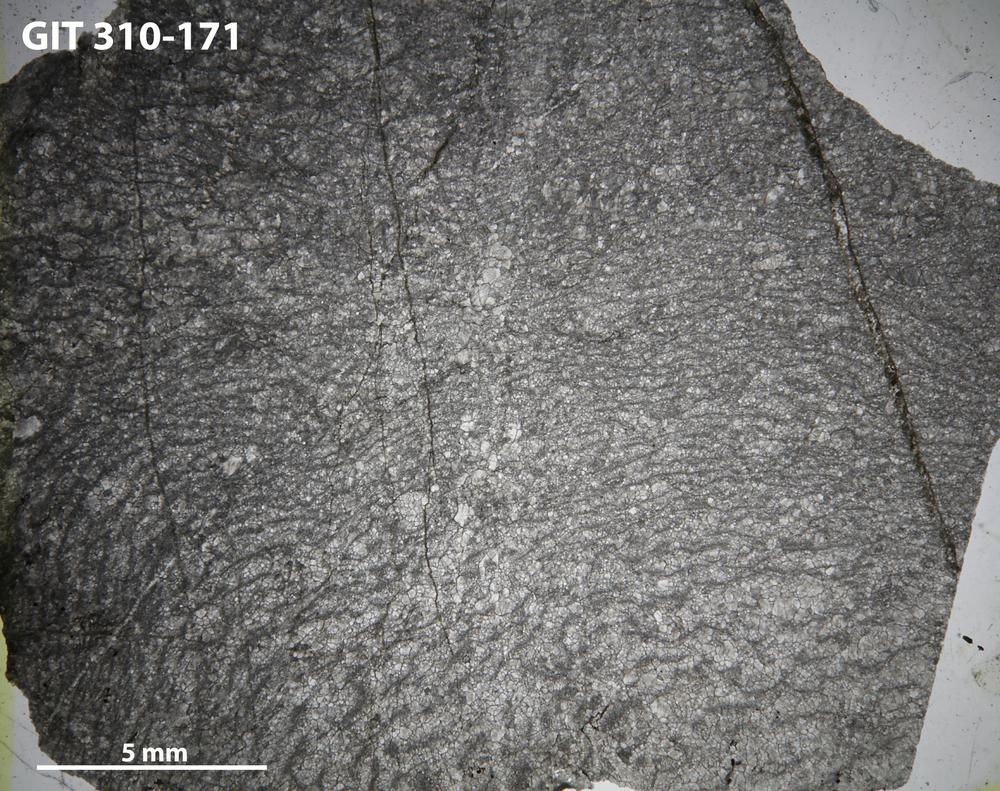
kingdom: Animalia
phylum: Porifera
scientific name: Porifera
